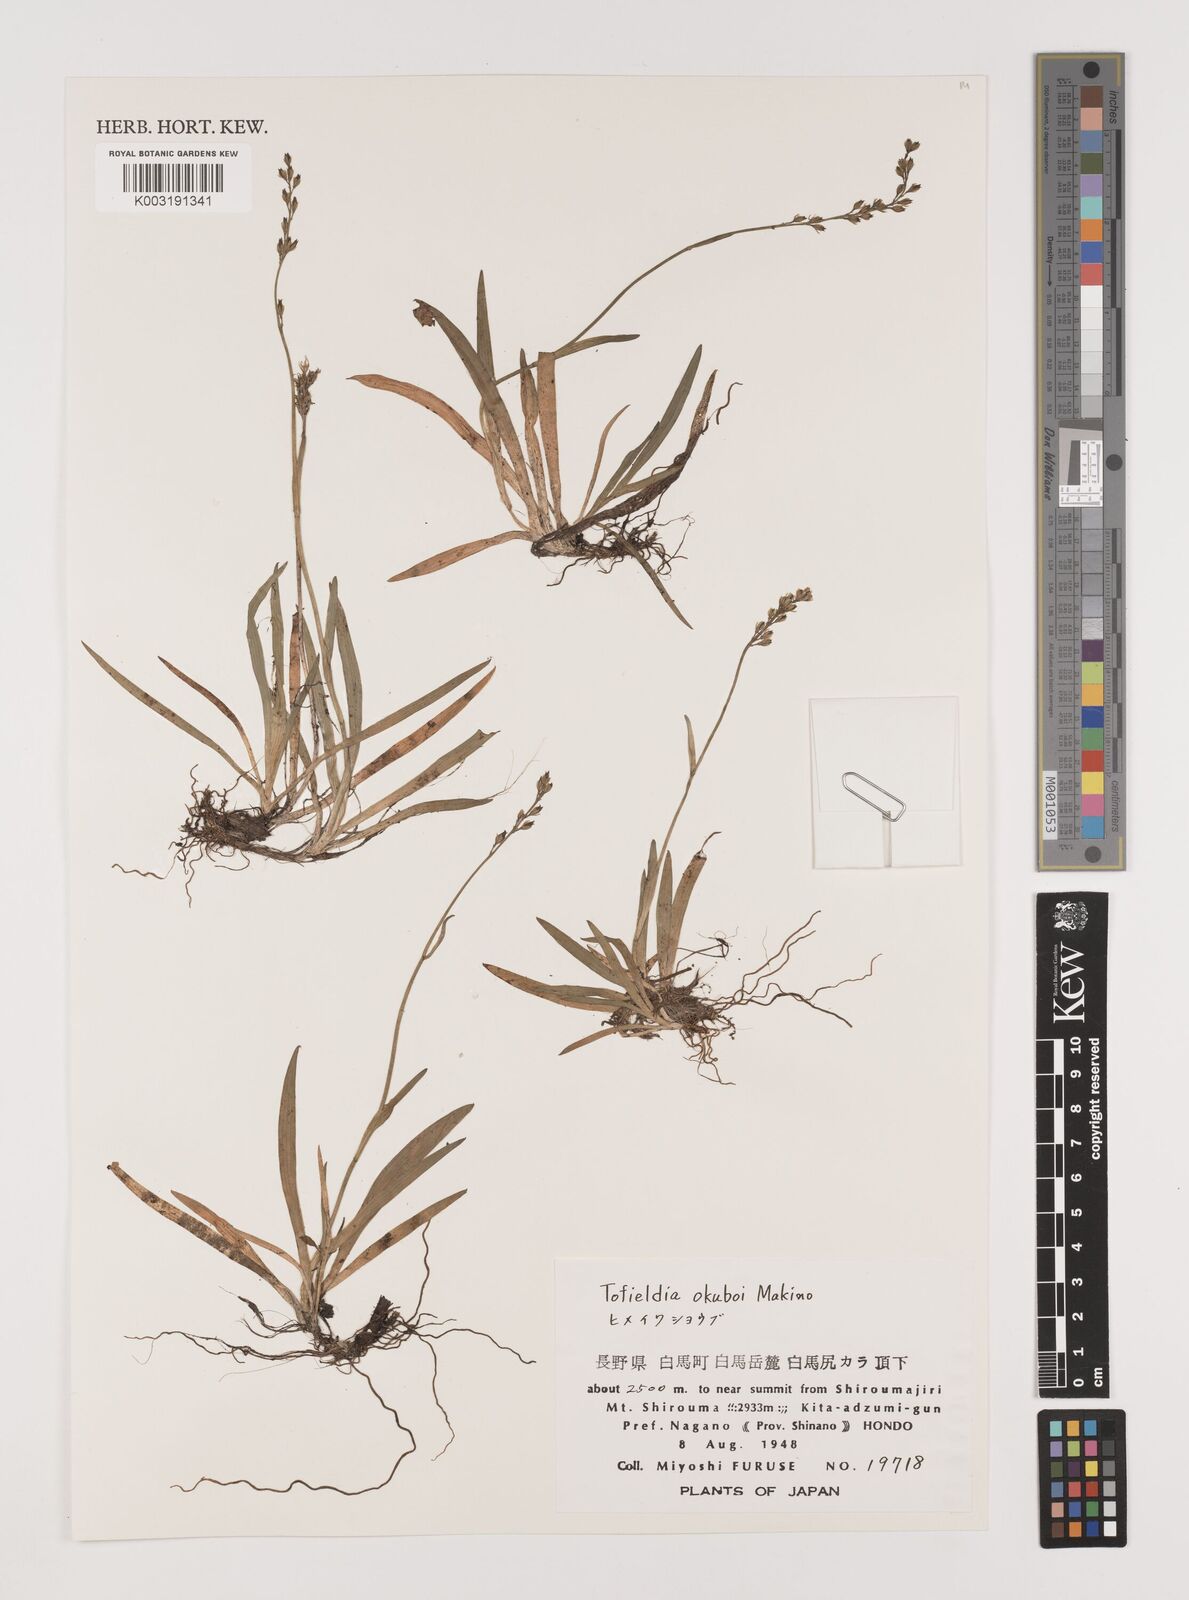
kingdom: Plantae
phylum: Tracheophyta
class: Liliopsida
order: Alismatales
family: Tofieldiaceae
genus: Tofieldia
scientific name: Tofieldia okuboi
